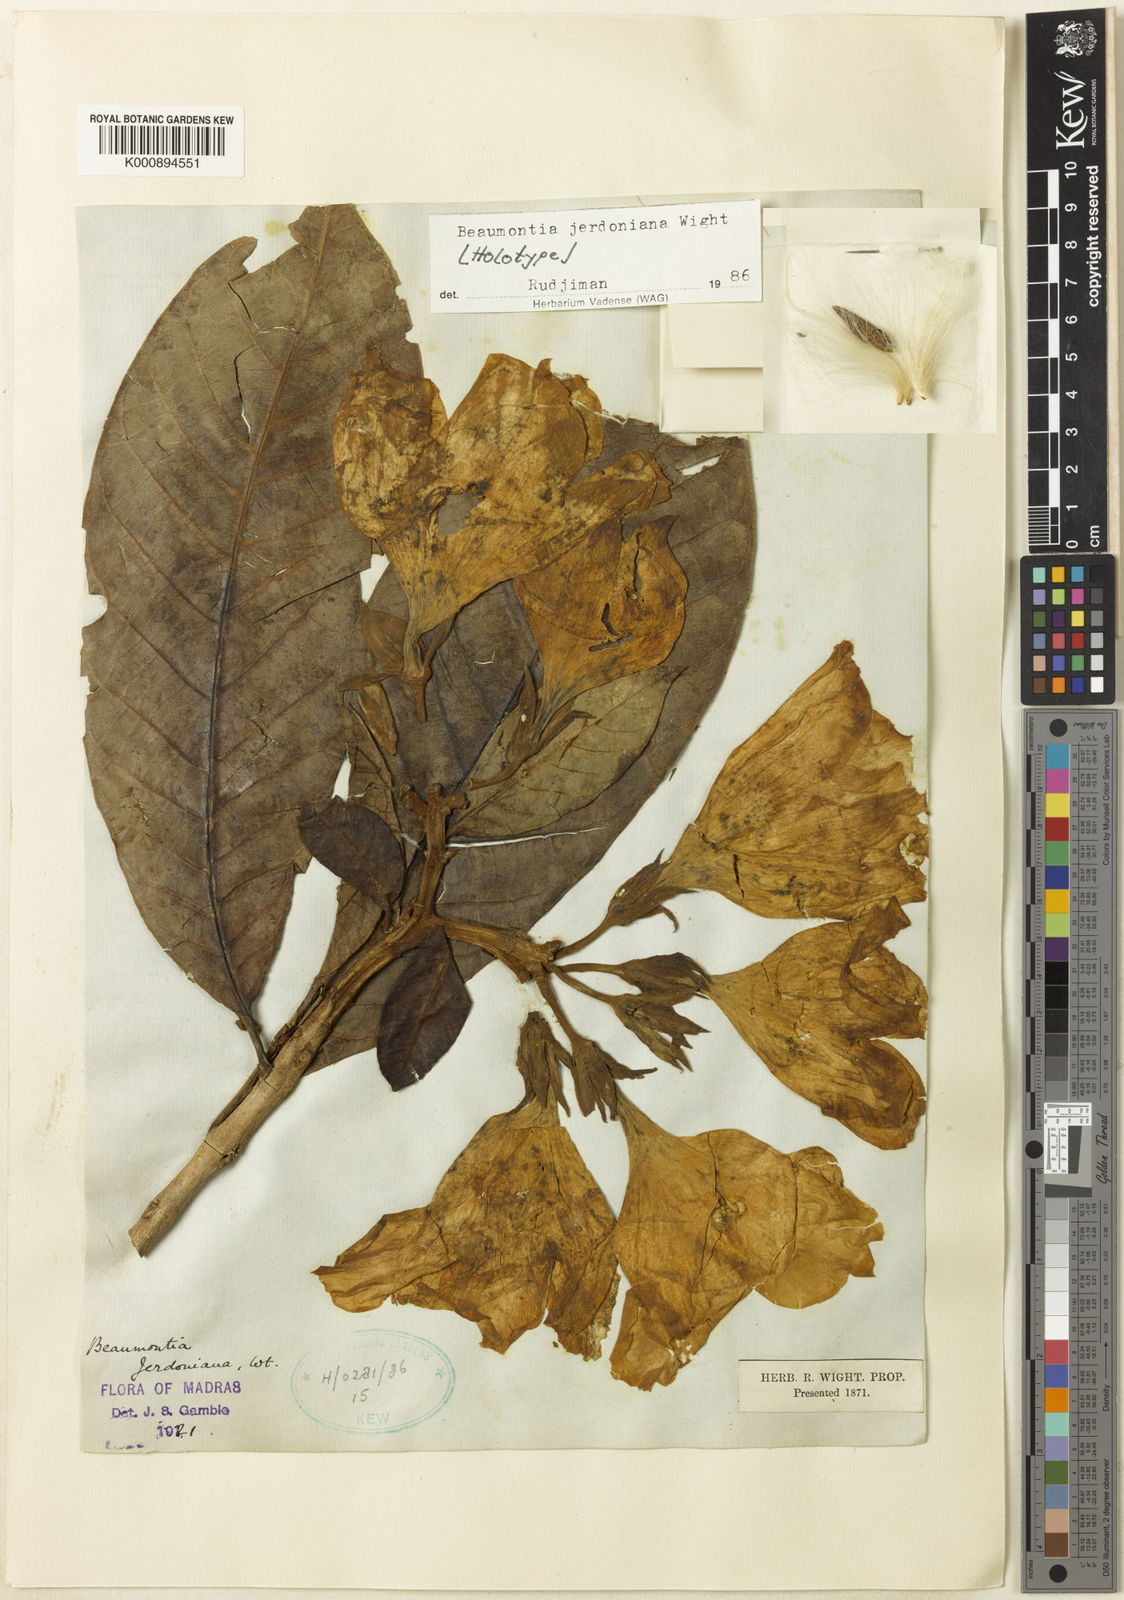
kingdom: Plantae
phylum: Tracheophyta
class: Magnoliopsida
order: Gentianales
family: Apocynaceae
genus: Beaumontia
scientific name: Beaumontia jerdoniana
